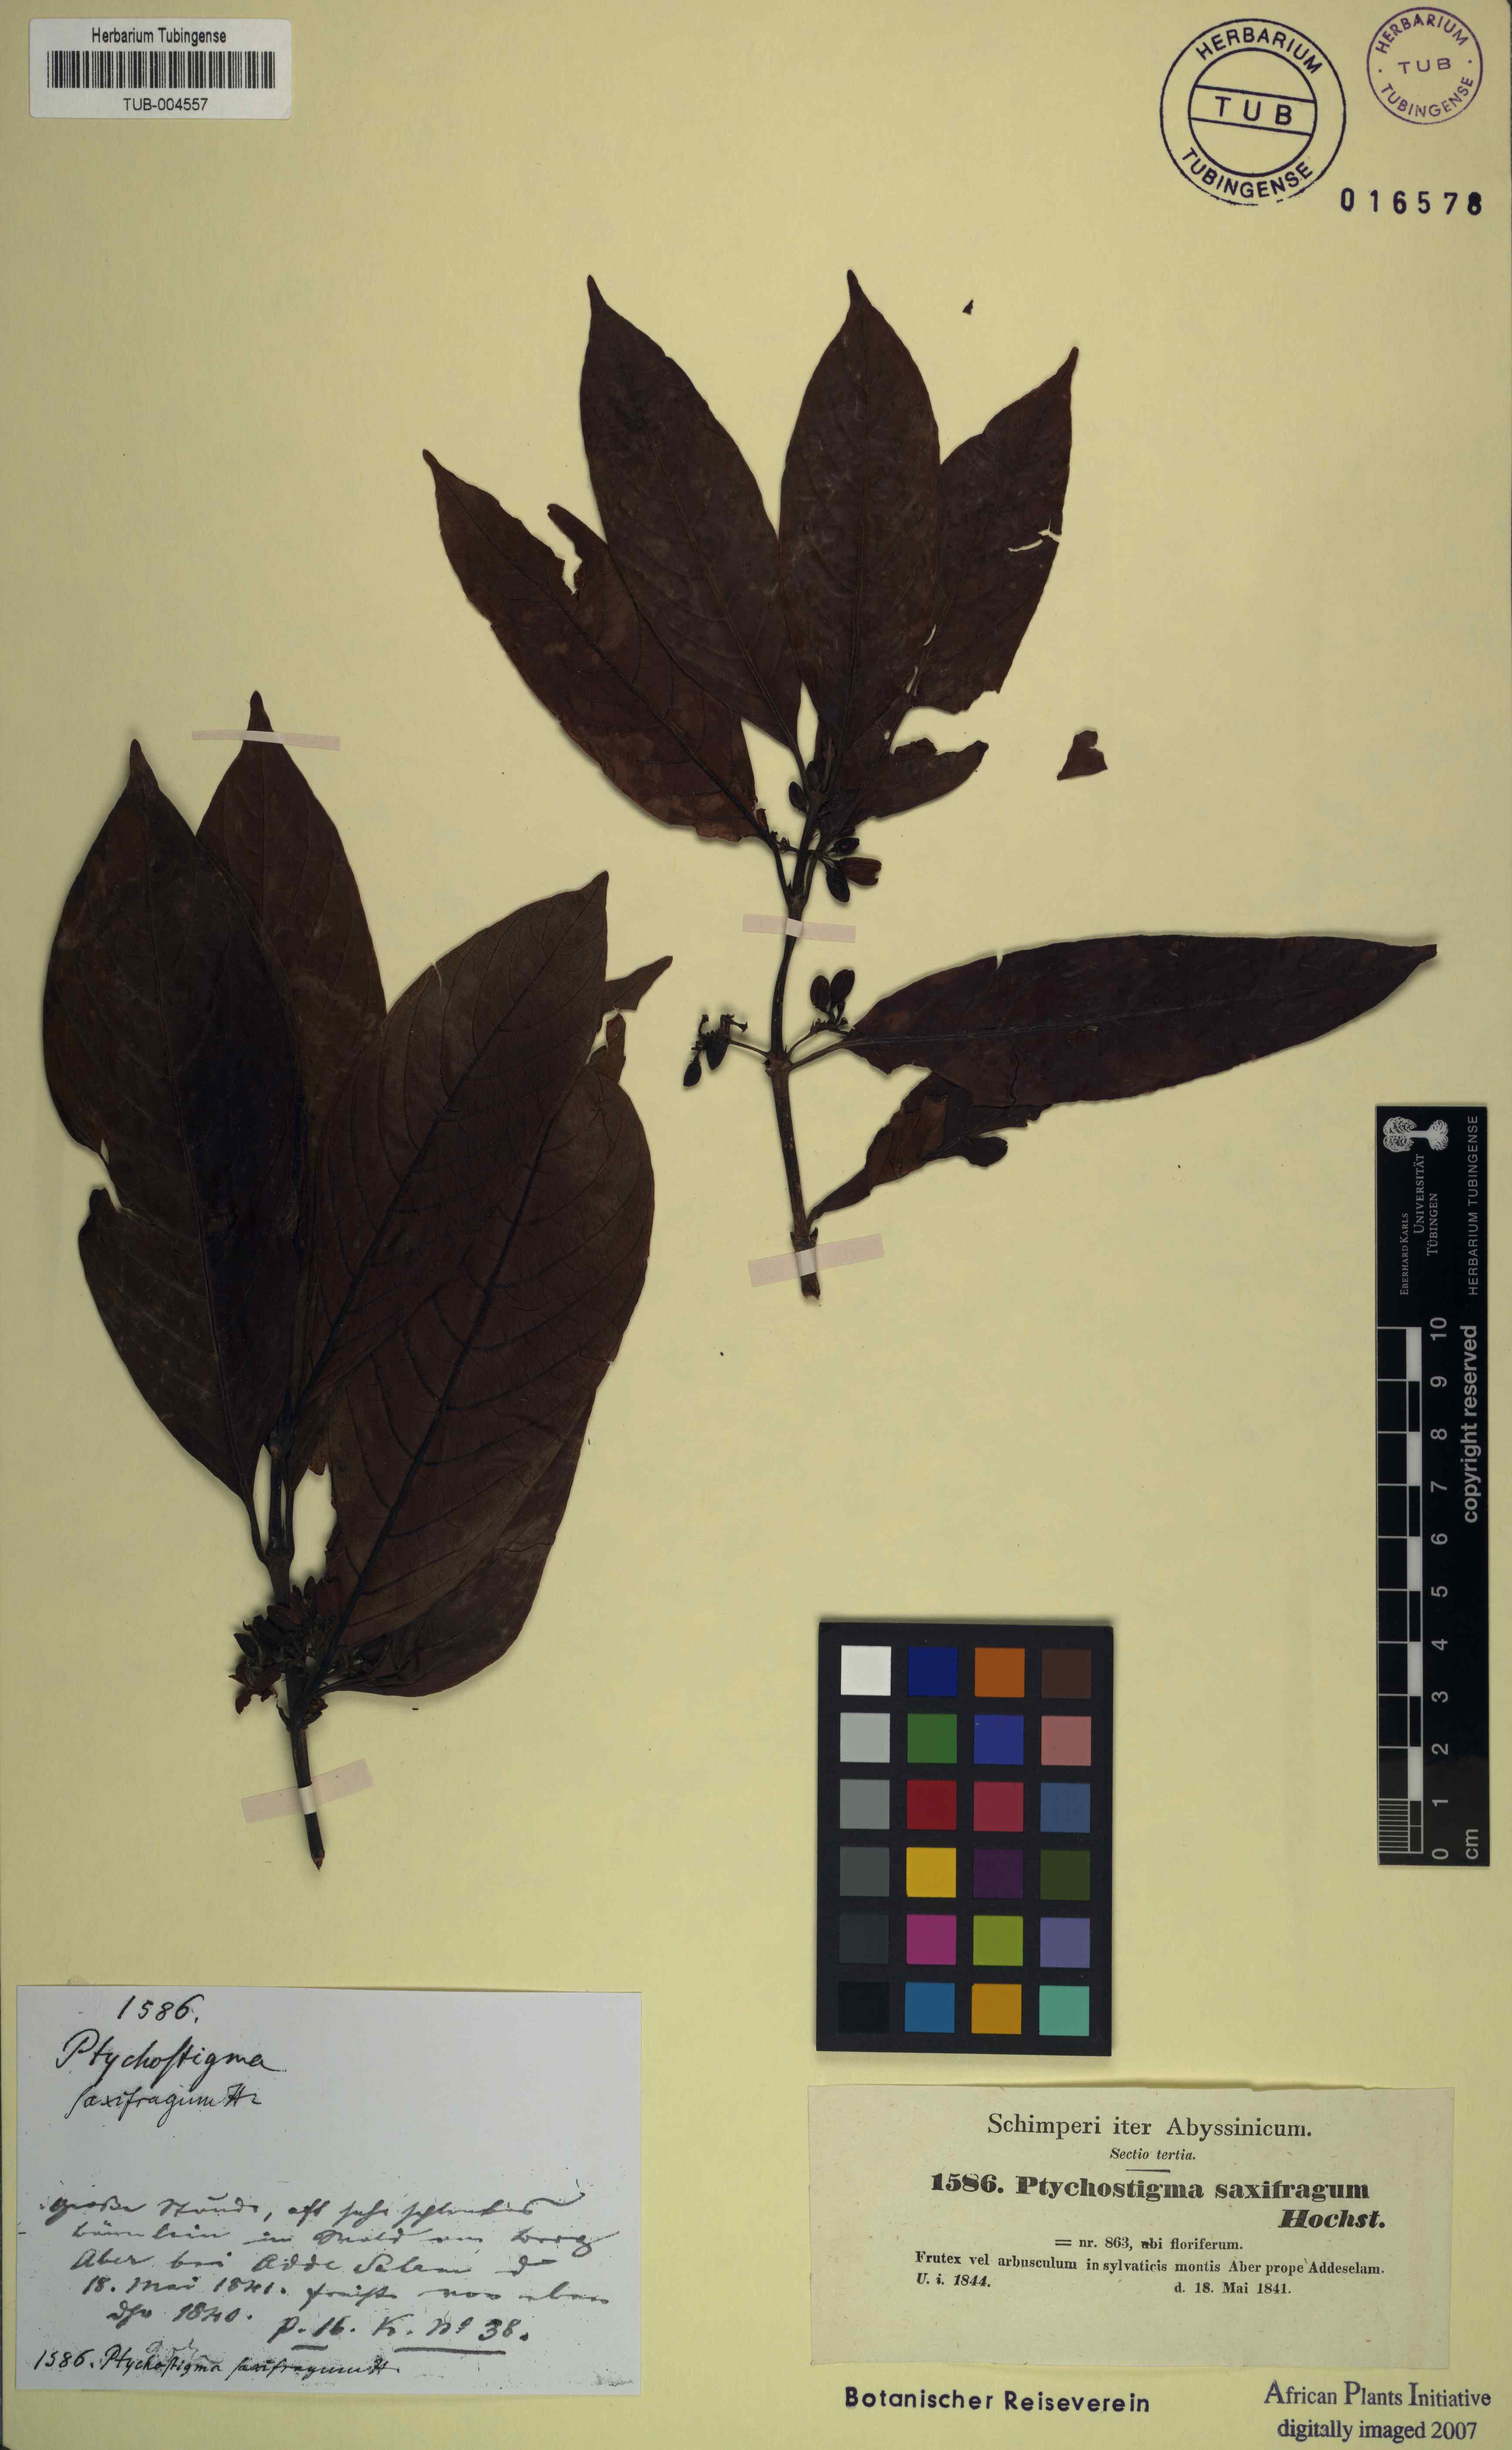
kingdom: Plantae
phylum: Tracheophyta
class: Magnoliopsida
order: Gentianales
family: Rubiaceae
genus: Galiniera
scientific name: Galiniera saxifraga
